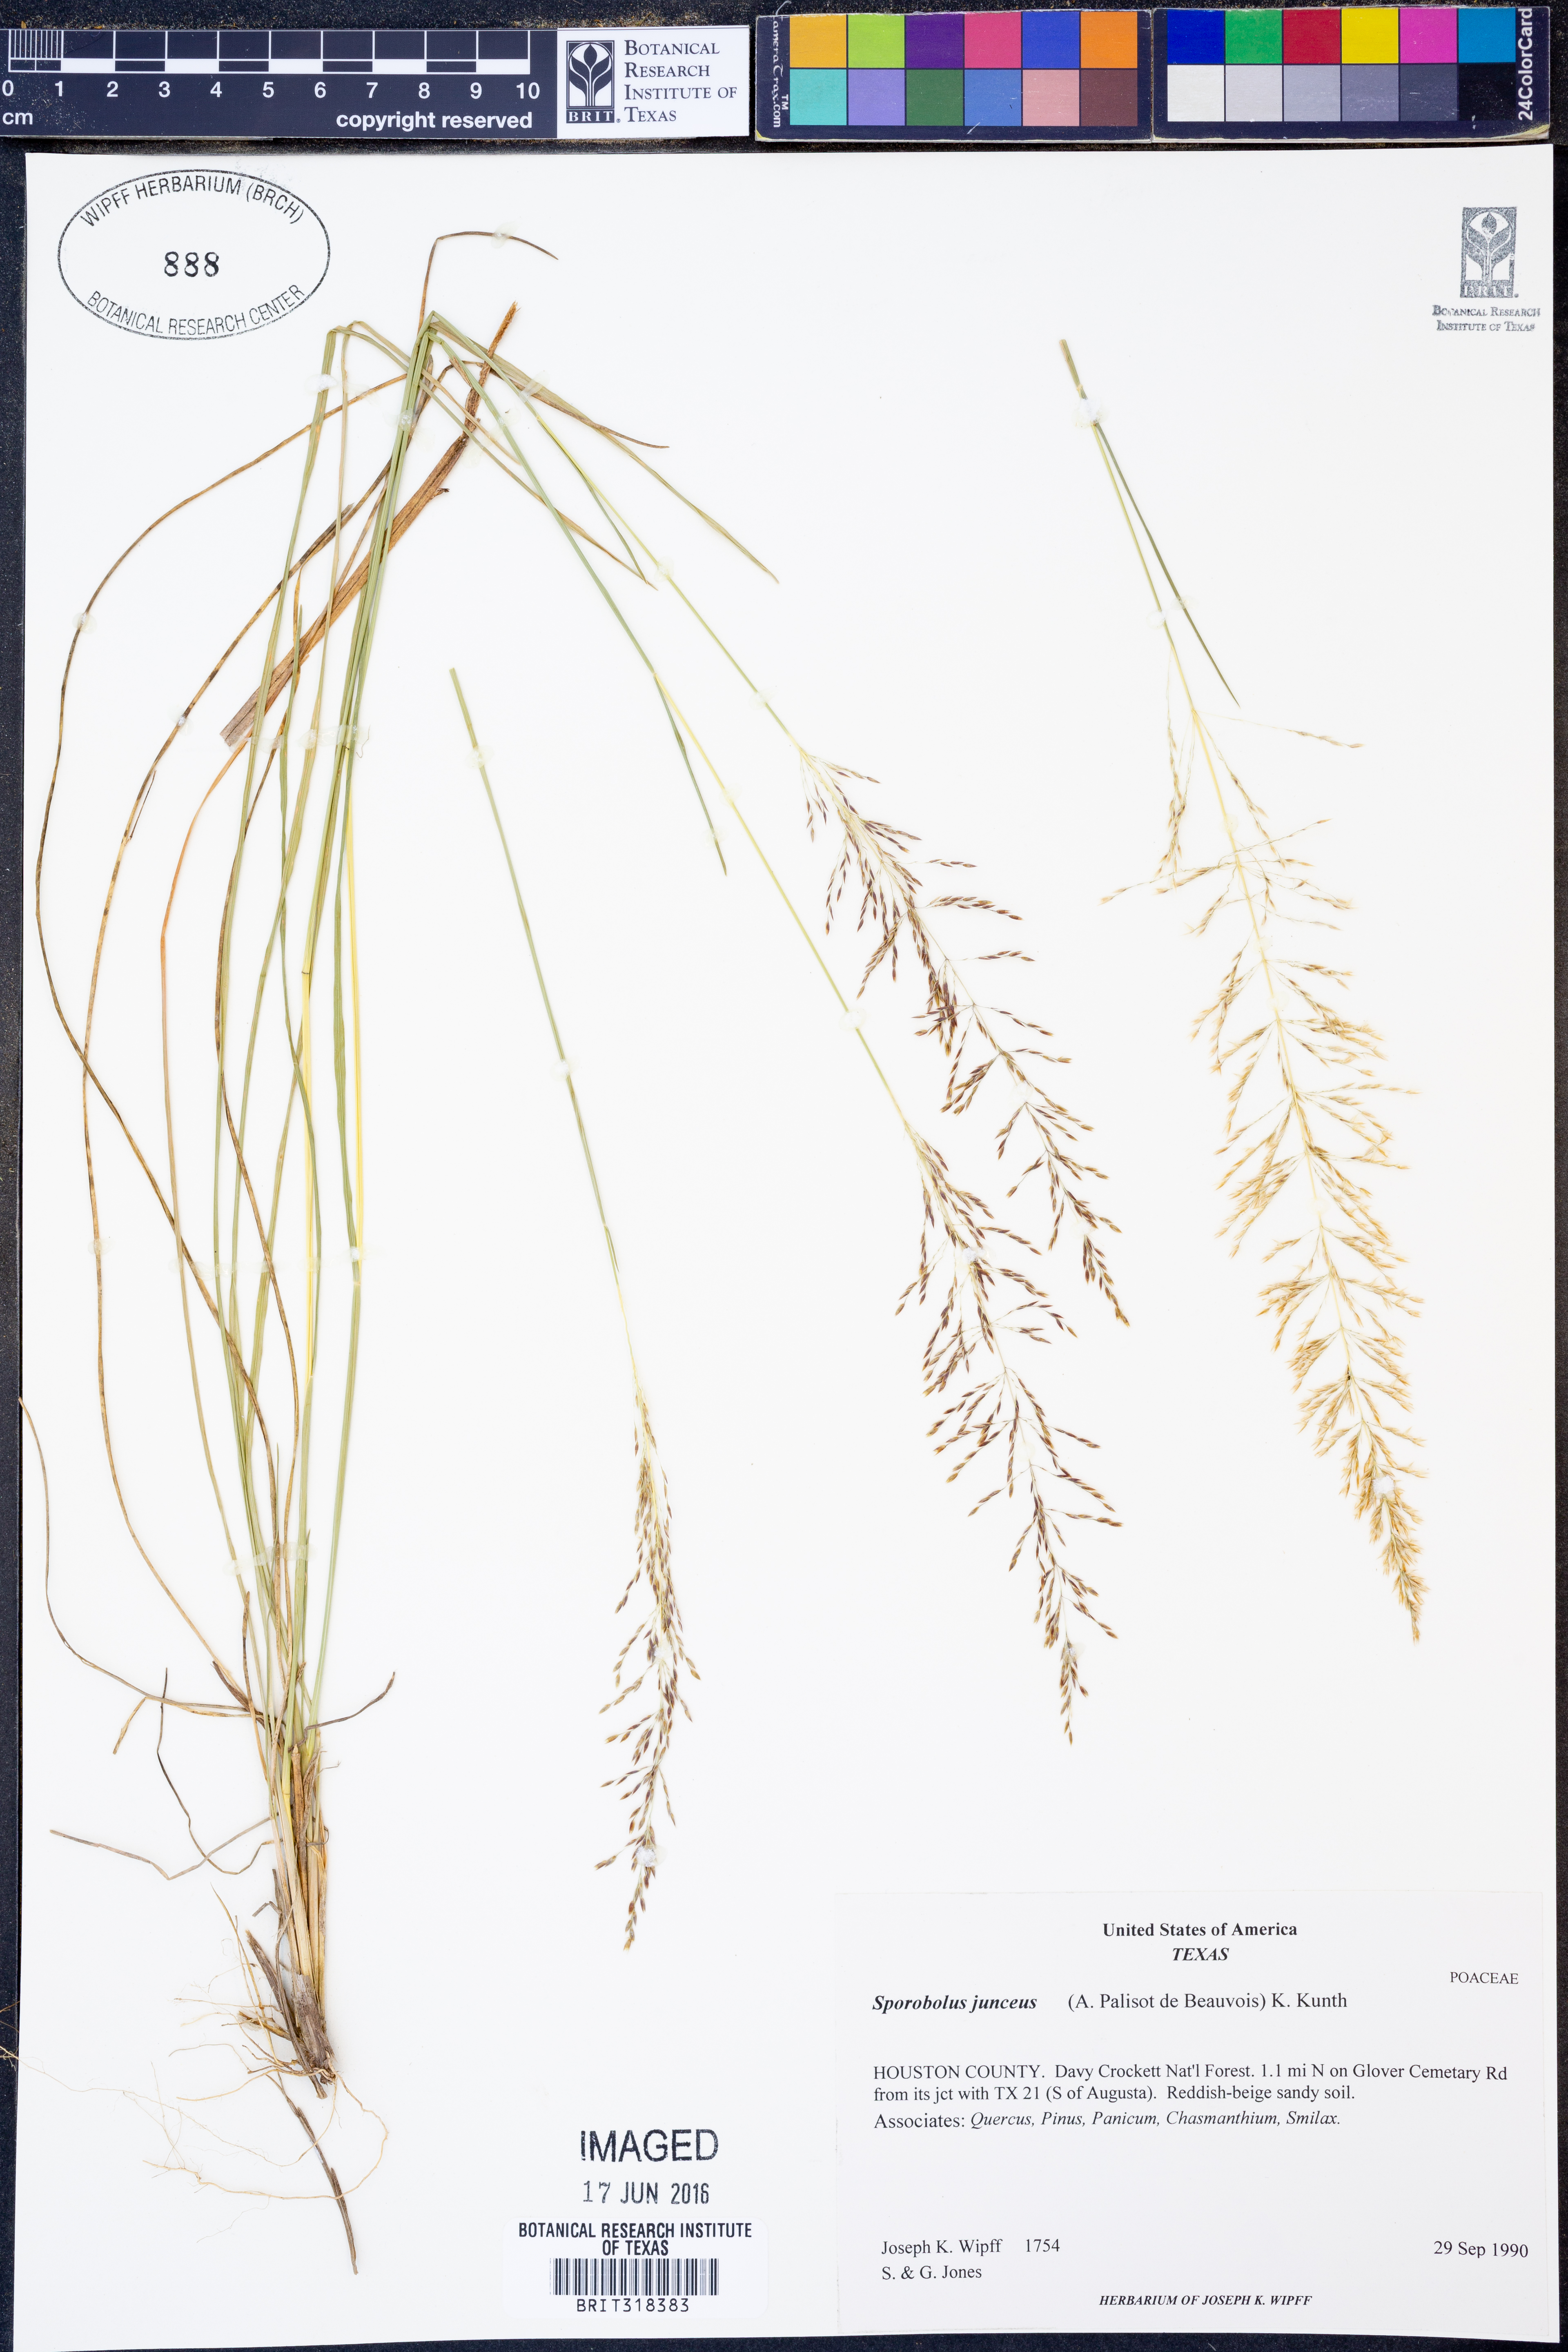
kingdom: Plantae
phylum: Tracheophyta
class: Liliopsida
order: Poales
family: Poaceae
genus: Sporobolus
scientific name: Sporobolus junceus
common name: Lizard grass
